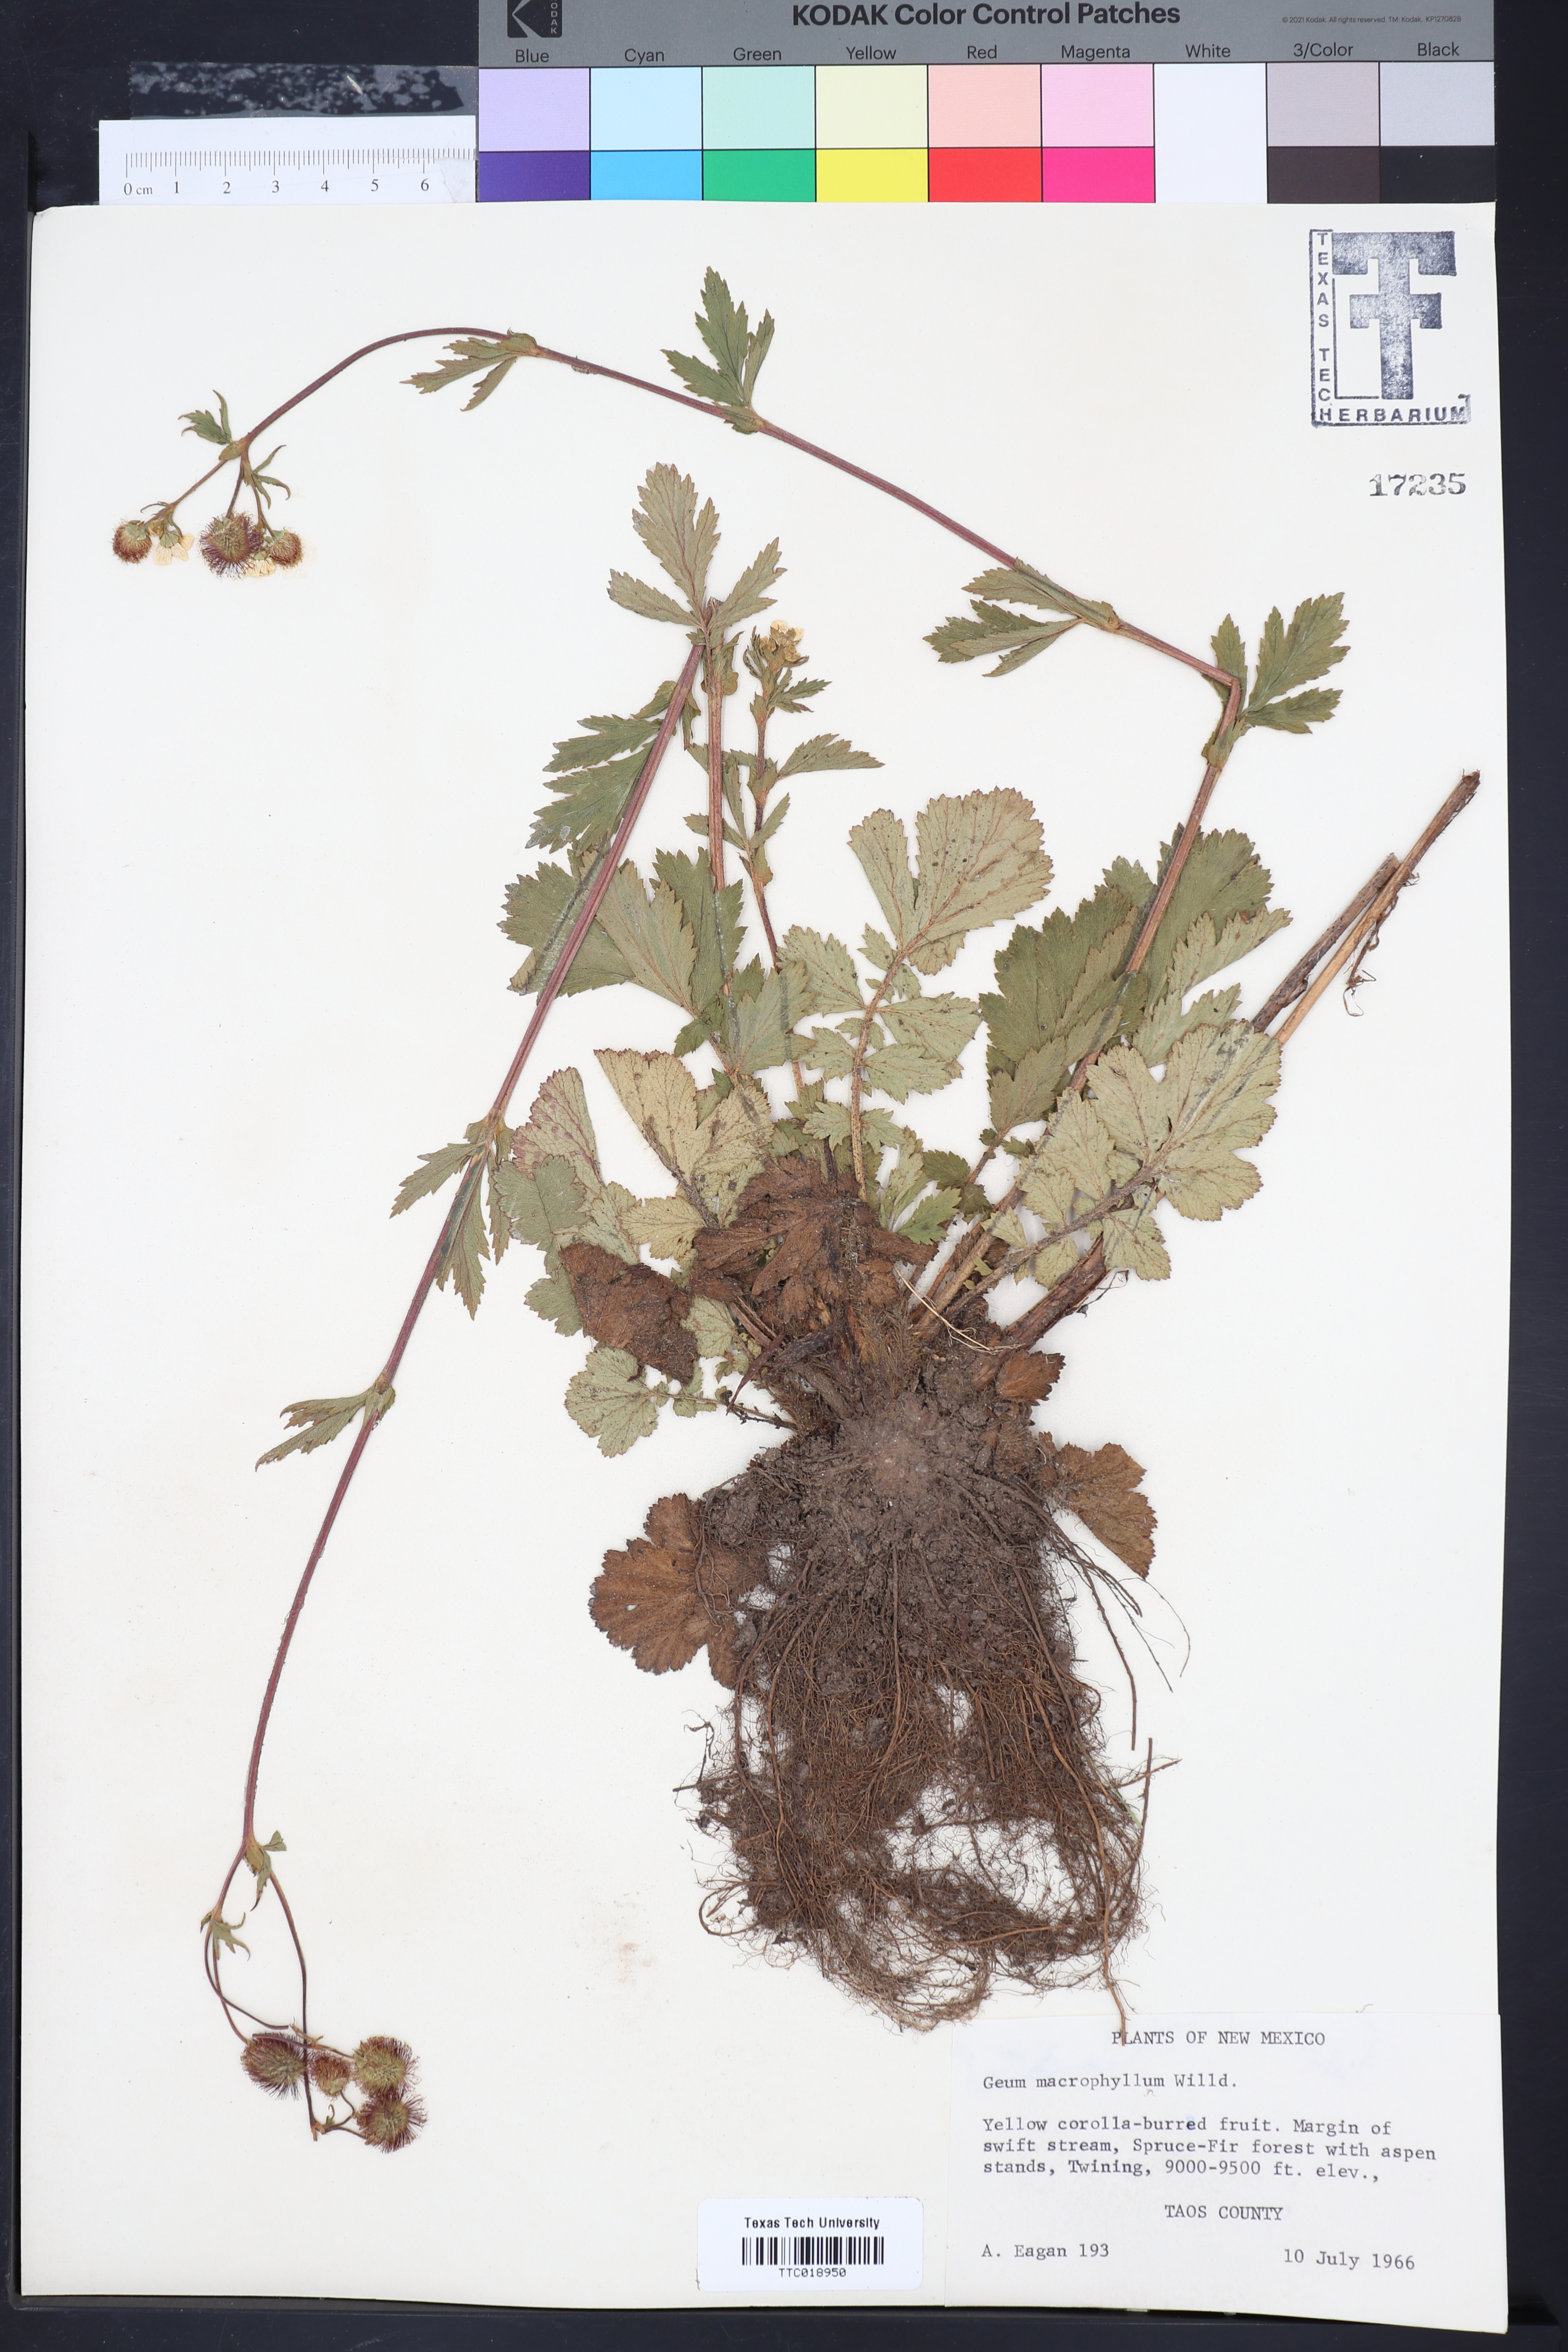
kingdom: Plantae
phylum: Tracheophyta
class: Magnoliopsida
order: Rosales
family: Rosaceae
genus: Geum
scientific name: Geum macrophyllum
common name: Large-leaved avens
